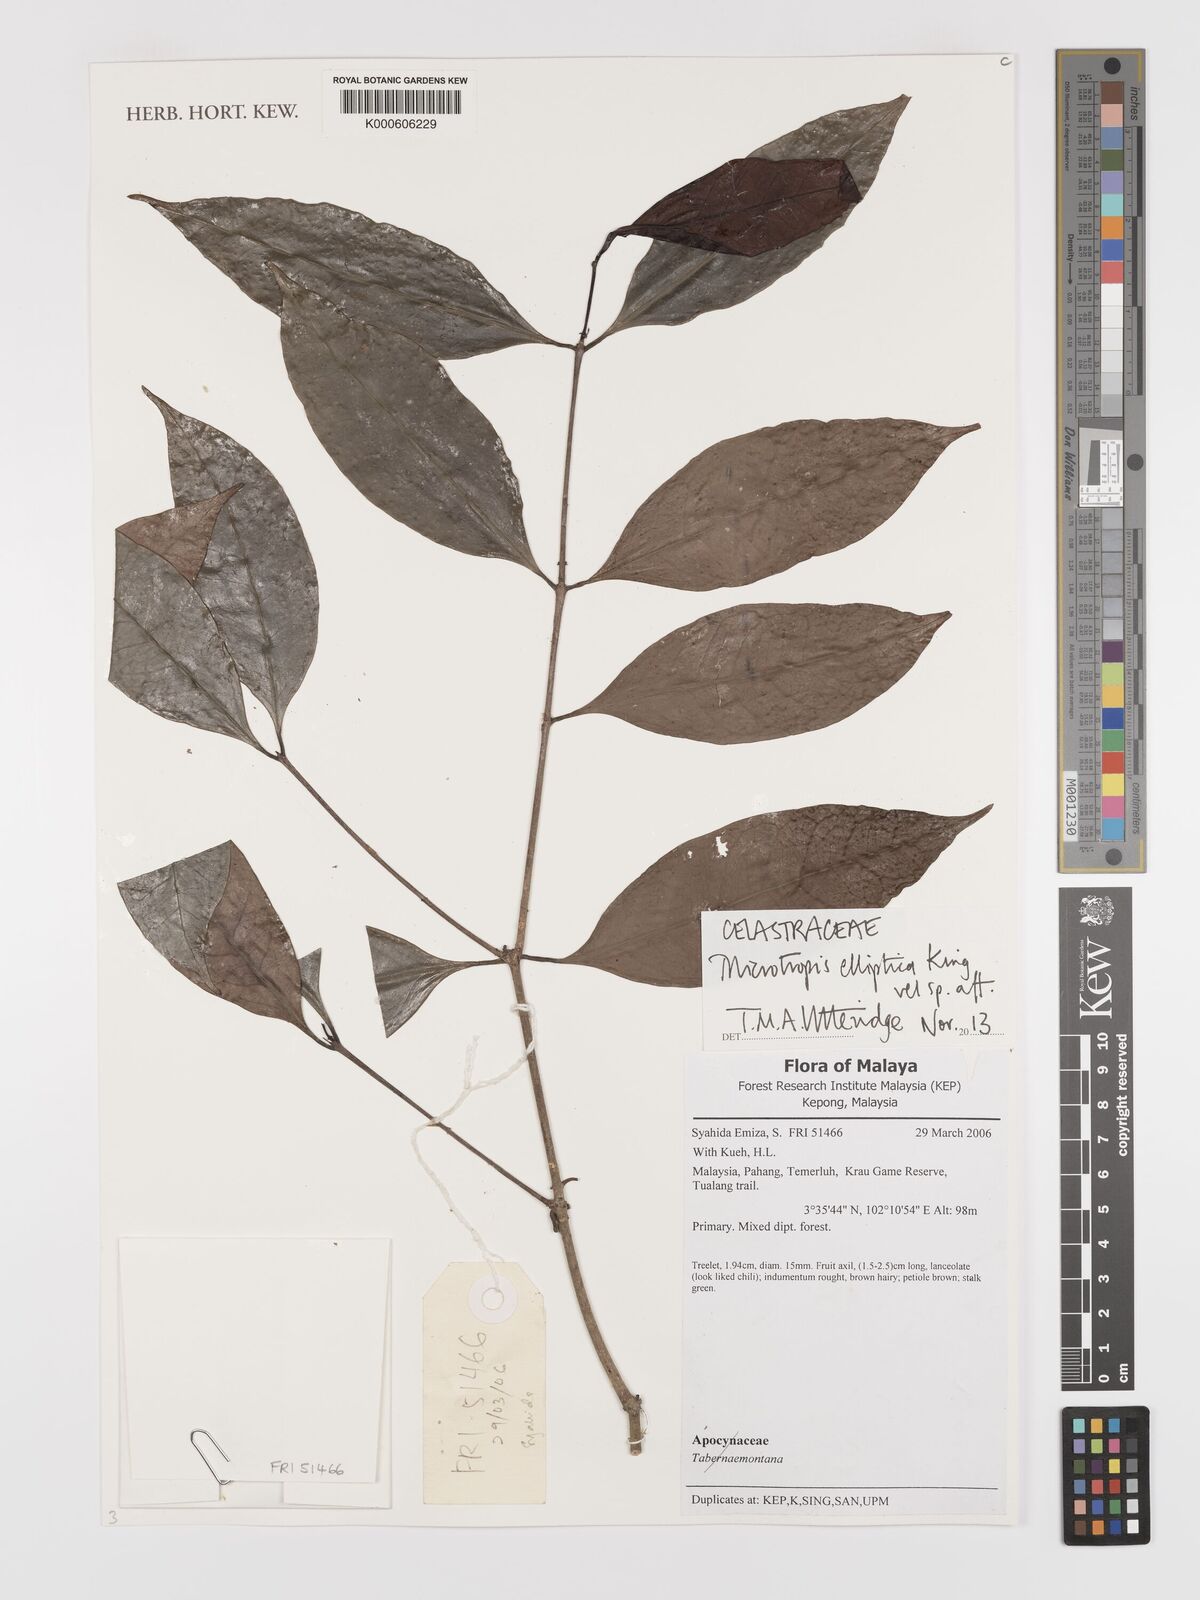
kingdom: Plantae
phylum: Tracheophyta
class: Magnoliopsida
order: Celastrales
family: Celastraceae
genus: Microtropis
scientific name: Microtropis elliptica
